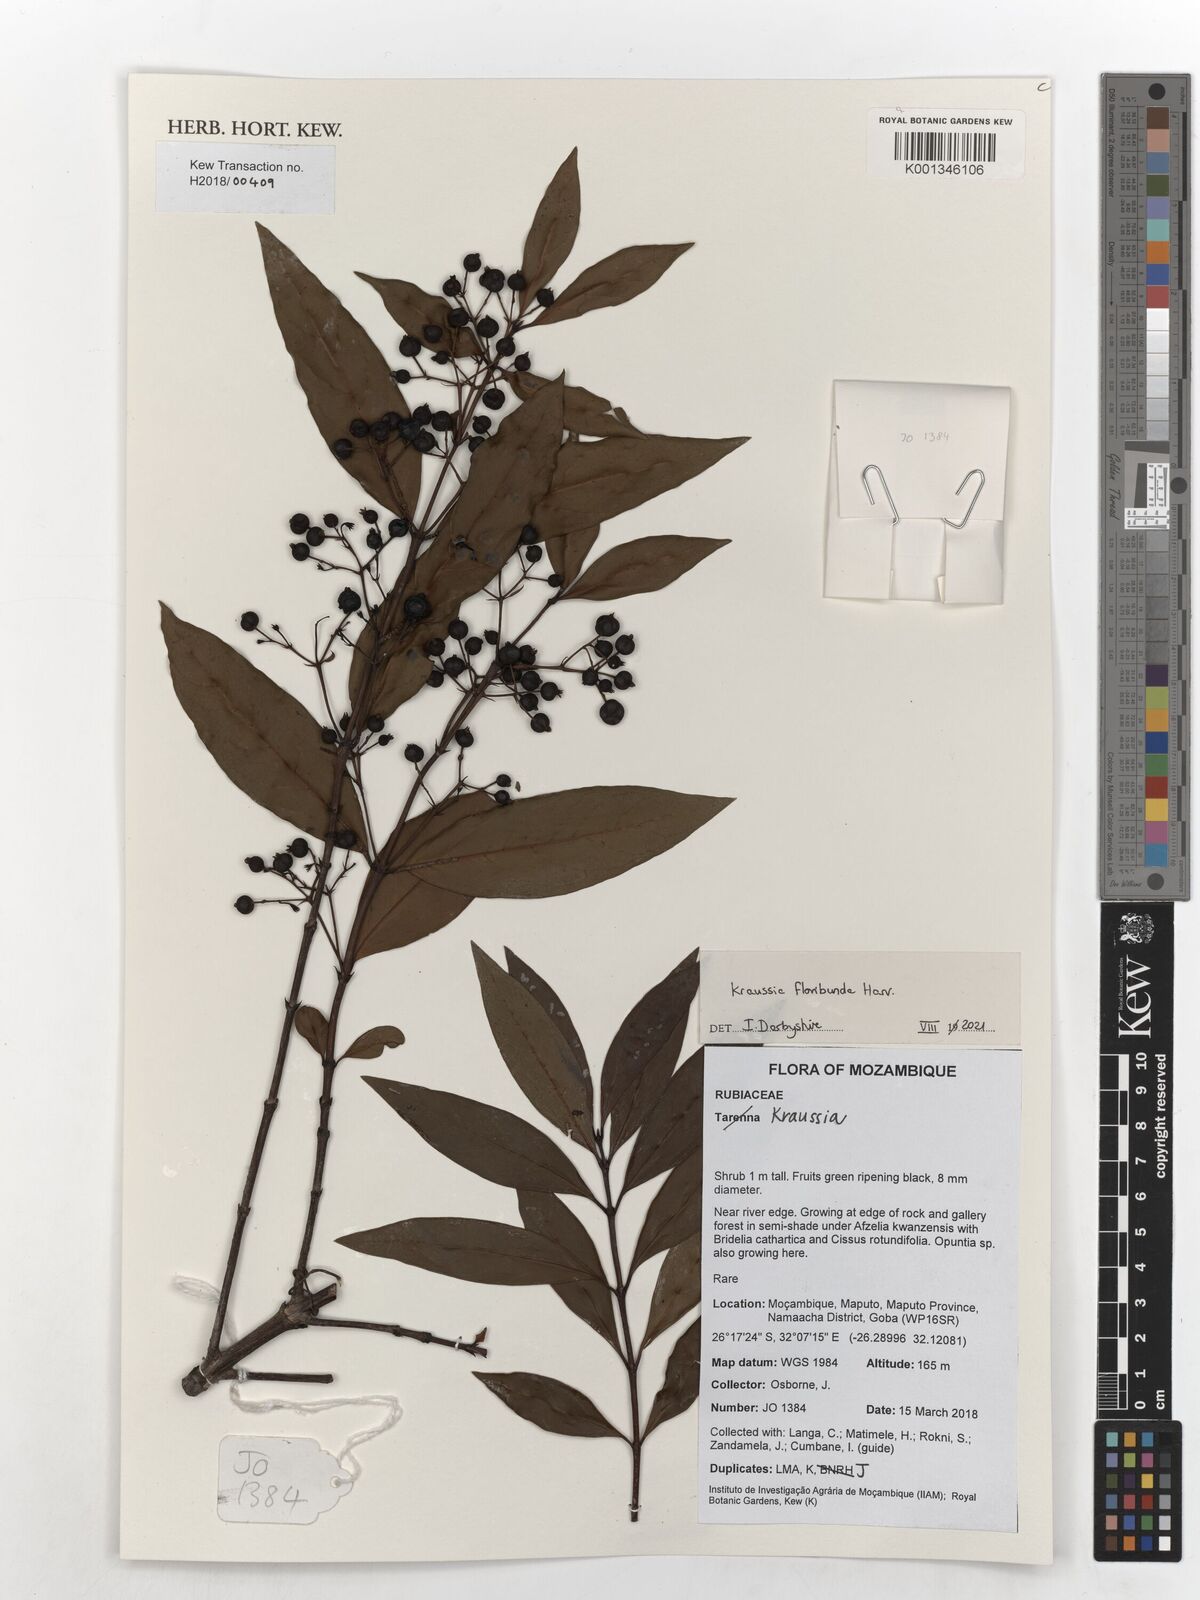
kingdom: Plantae
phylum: Tracheophyta
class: Magnoliopsida
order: Gentianales
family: Rubiaceae
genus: Kraussia
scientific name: Kraussia floribunda
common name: Rhino-coffee
